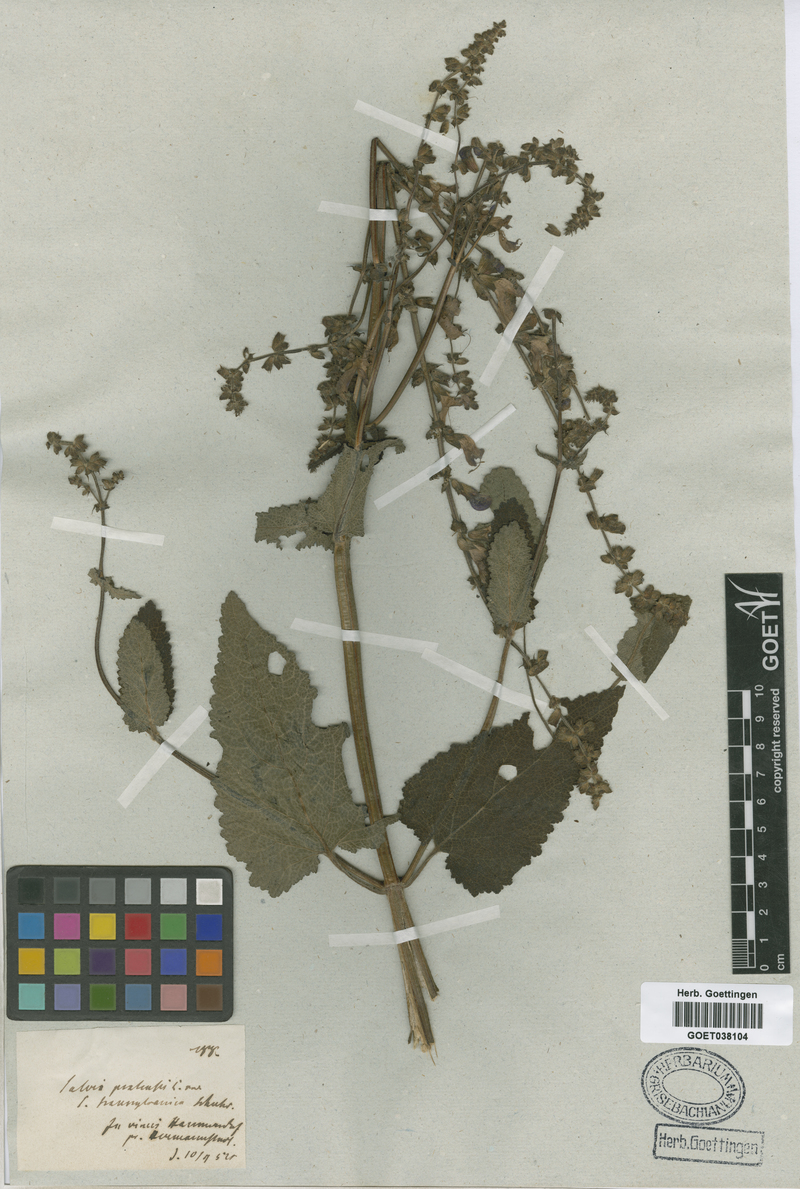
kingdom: Plantae
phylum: Tracheophyta
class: Magnoliopsida
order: Lamiales
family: Lamiaceae
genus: Salvia
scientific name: Salvia transsylvanica
